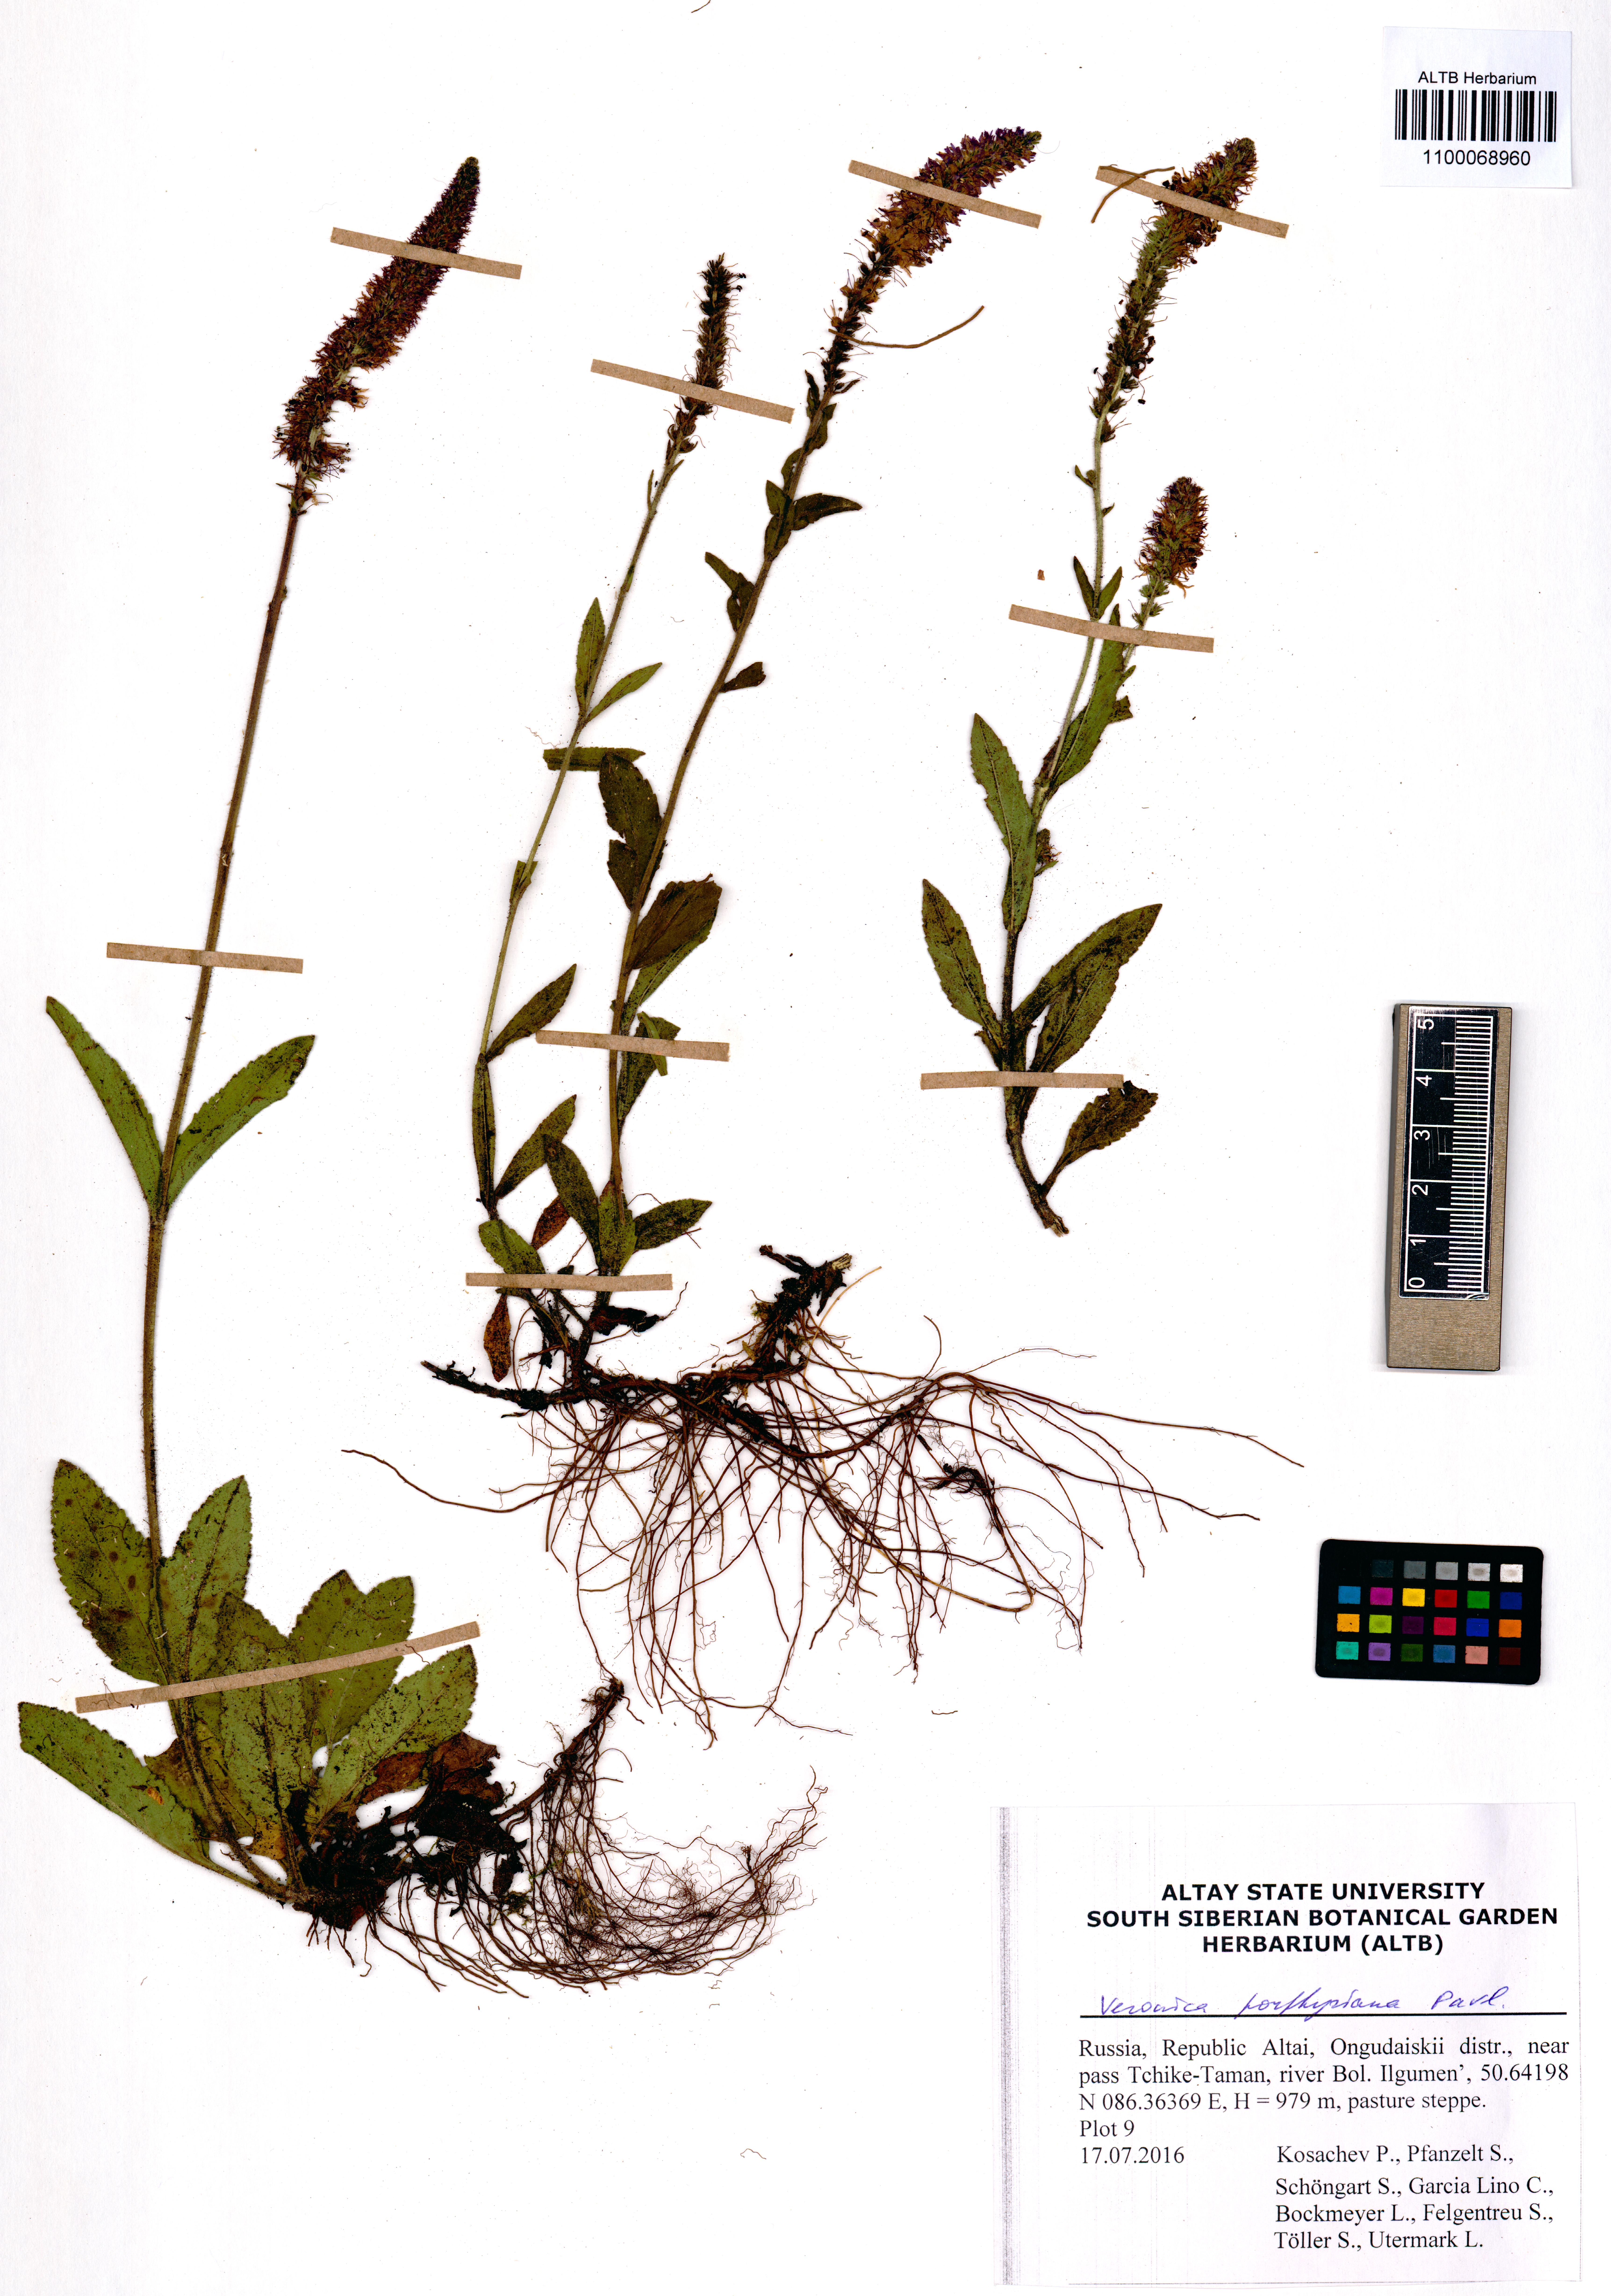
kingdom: Plantae
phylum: Tracheophyta
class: Magnoliopsida
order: Lamiales
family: Plantaginaceae
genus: Veronica
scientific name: Veronica porphyriana
